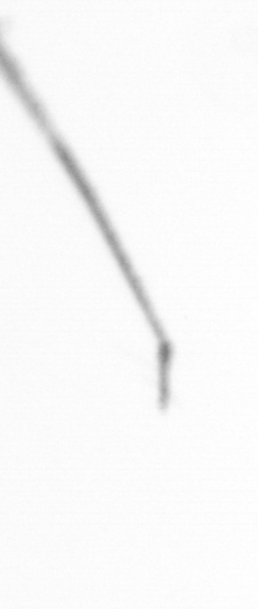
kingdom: Chromista
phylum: Ochrophyta
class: Bacillariophyceae
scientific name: Bacillariophyceae
